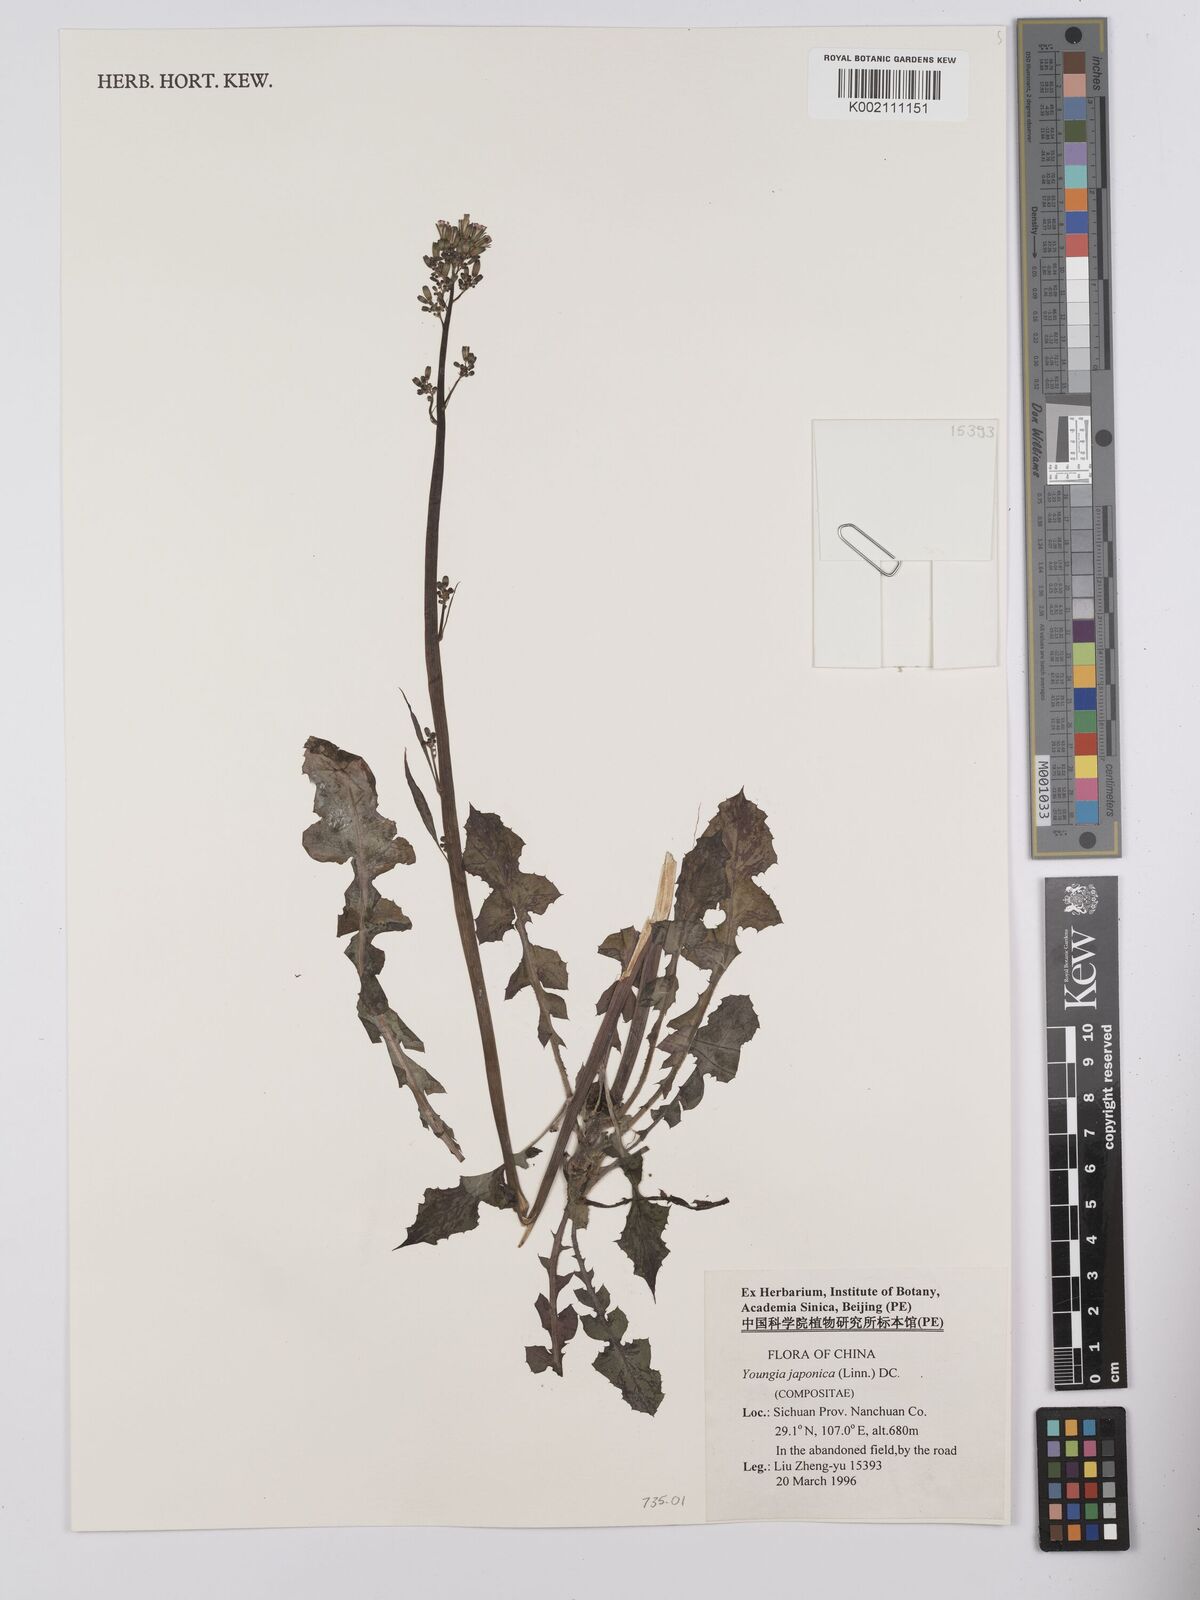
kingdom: Plantae
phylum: Tracheophyta
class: Magnoliopsida
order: Asterales
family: Asteraceae
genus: Youngia
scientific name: Youngia japonica
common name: Oriental false hawksbeard
